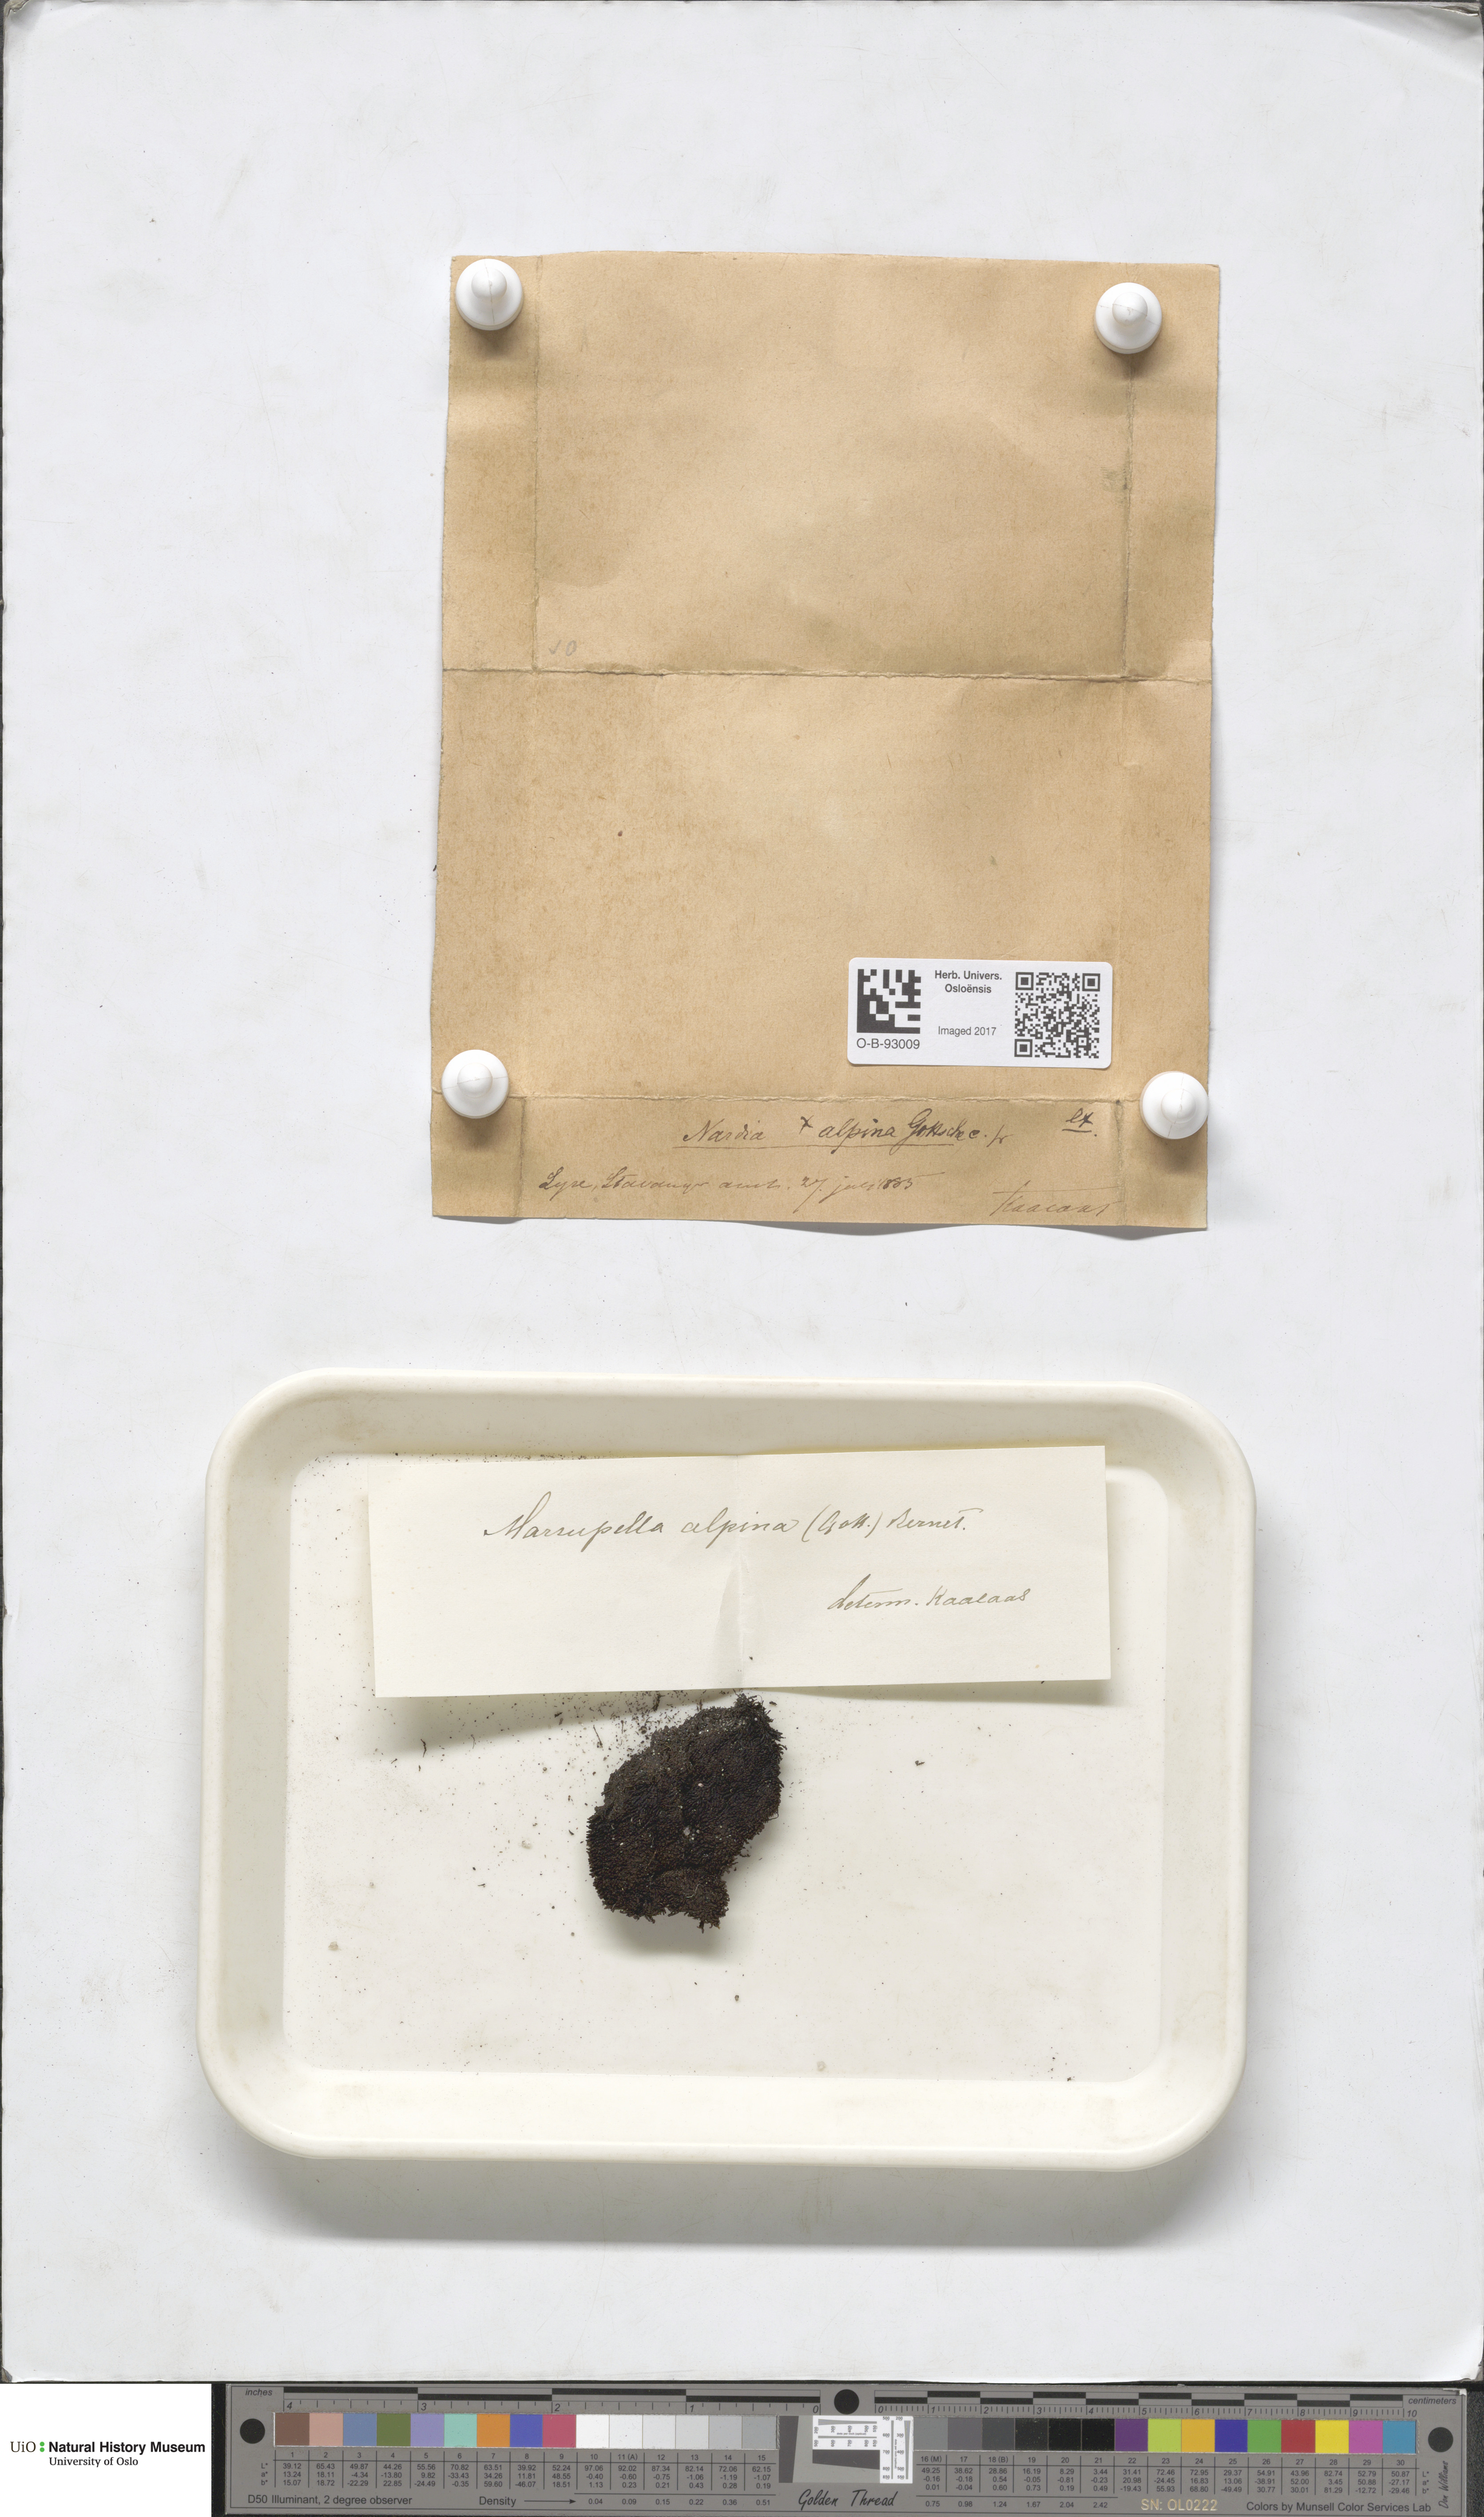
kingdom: Plantae
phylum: Marchantiophyta
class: Jungermanniopsida
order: Jungermanniales
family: Gymnomitriaceae
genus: Gymnomitrion
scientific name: Gymnomitrion alpinum
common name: Alpine rustwort
